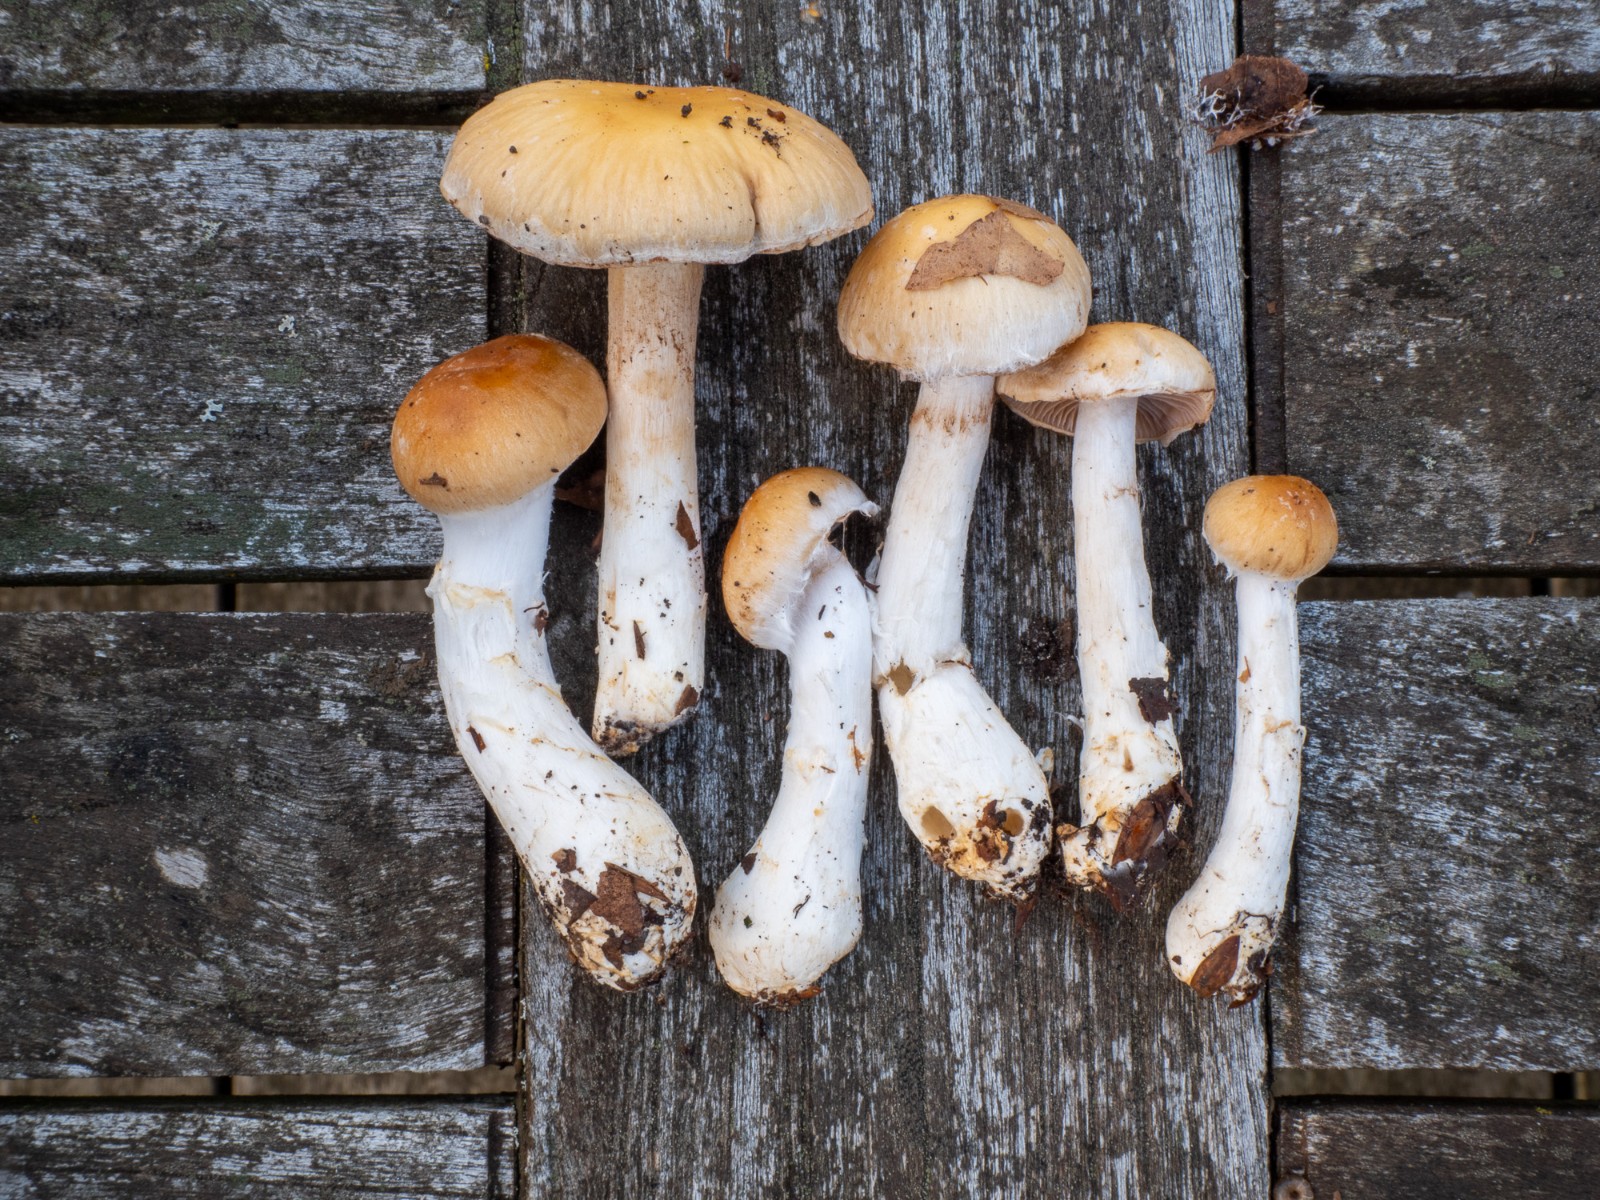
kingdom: Fungi
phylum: Basidiomycota
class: Agaricomycetes
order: Agaricales
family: Cortinariaceae
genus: Phlegmacium
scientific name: Phlegmacium obsoletum
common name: ulve-slørhat
